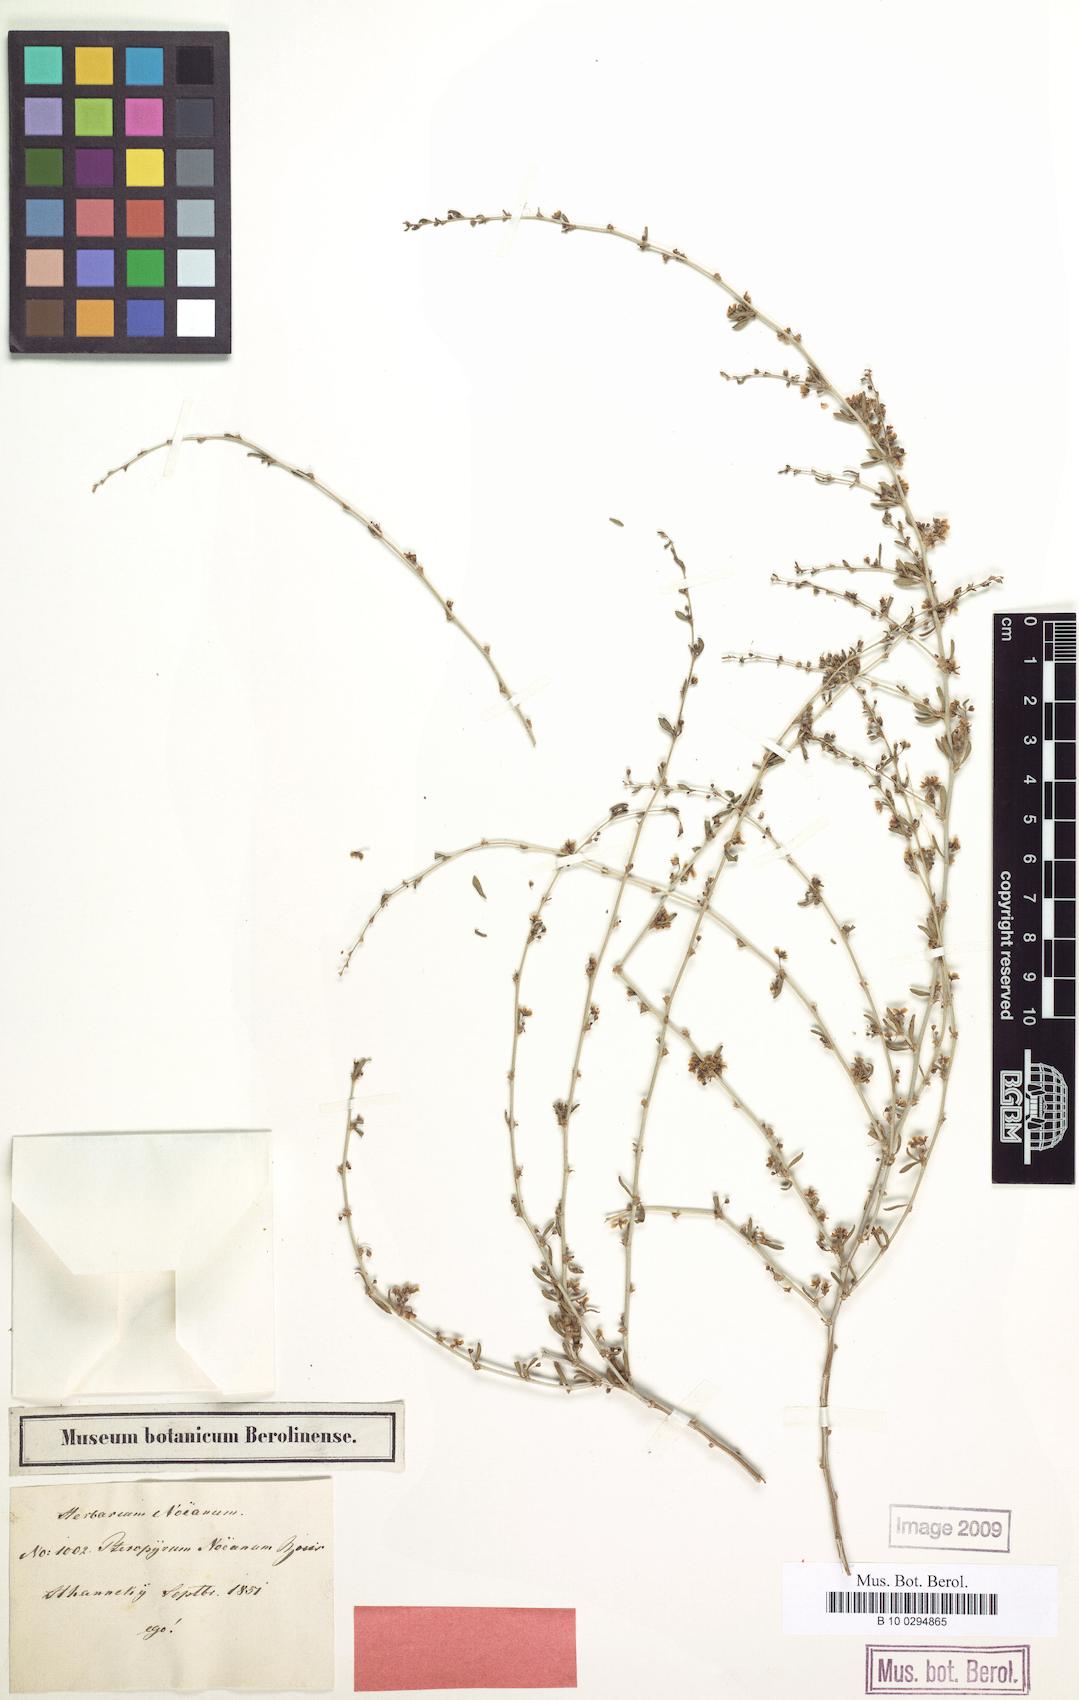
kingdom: Plantae
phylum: Tracheophyta
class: Magnoliopsida
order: Caryophyllales
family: Polygonaceae
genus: Pteropyrum
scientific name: Pteropyrum aucheri
